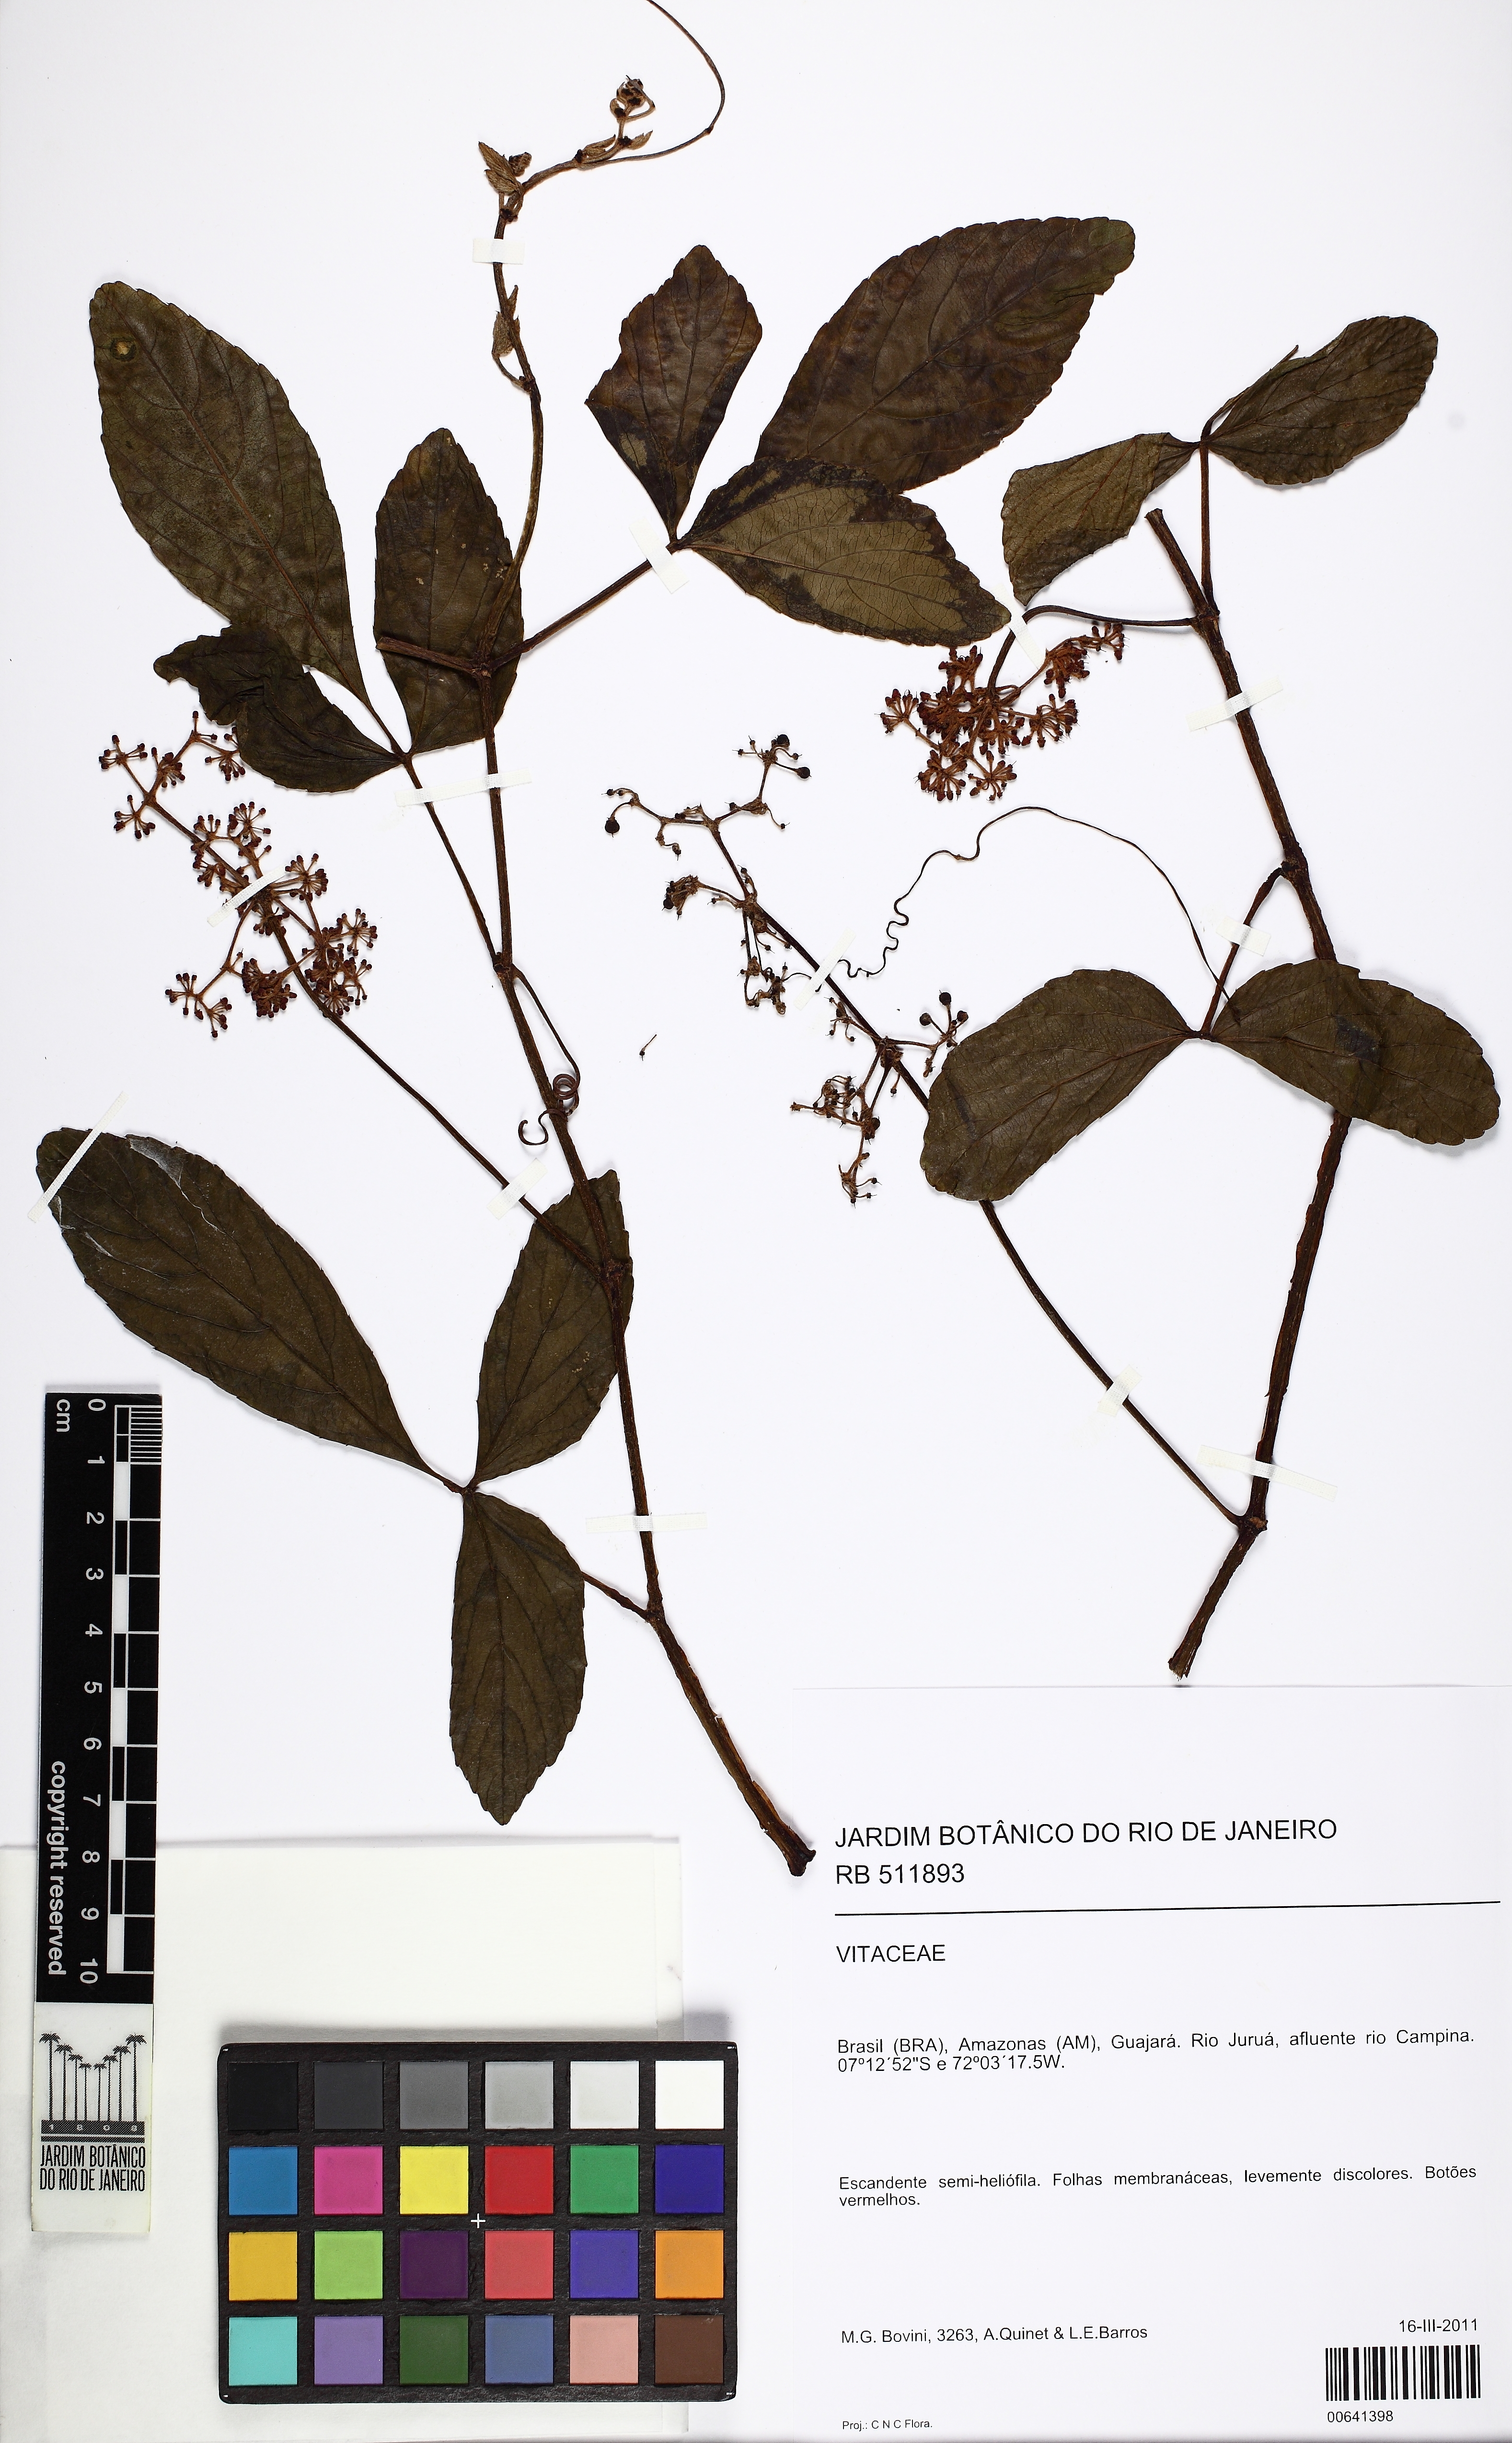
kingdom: Plantae
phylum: Tracheophyta
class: Magnoliopsida
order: Vitales
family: Vitaceae
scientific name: Vitaceae
